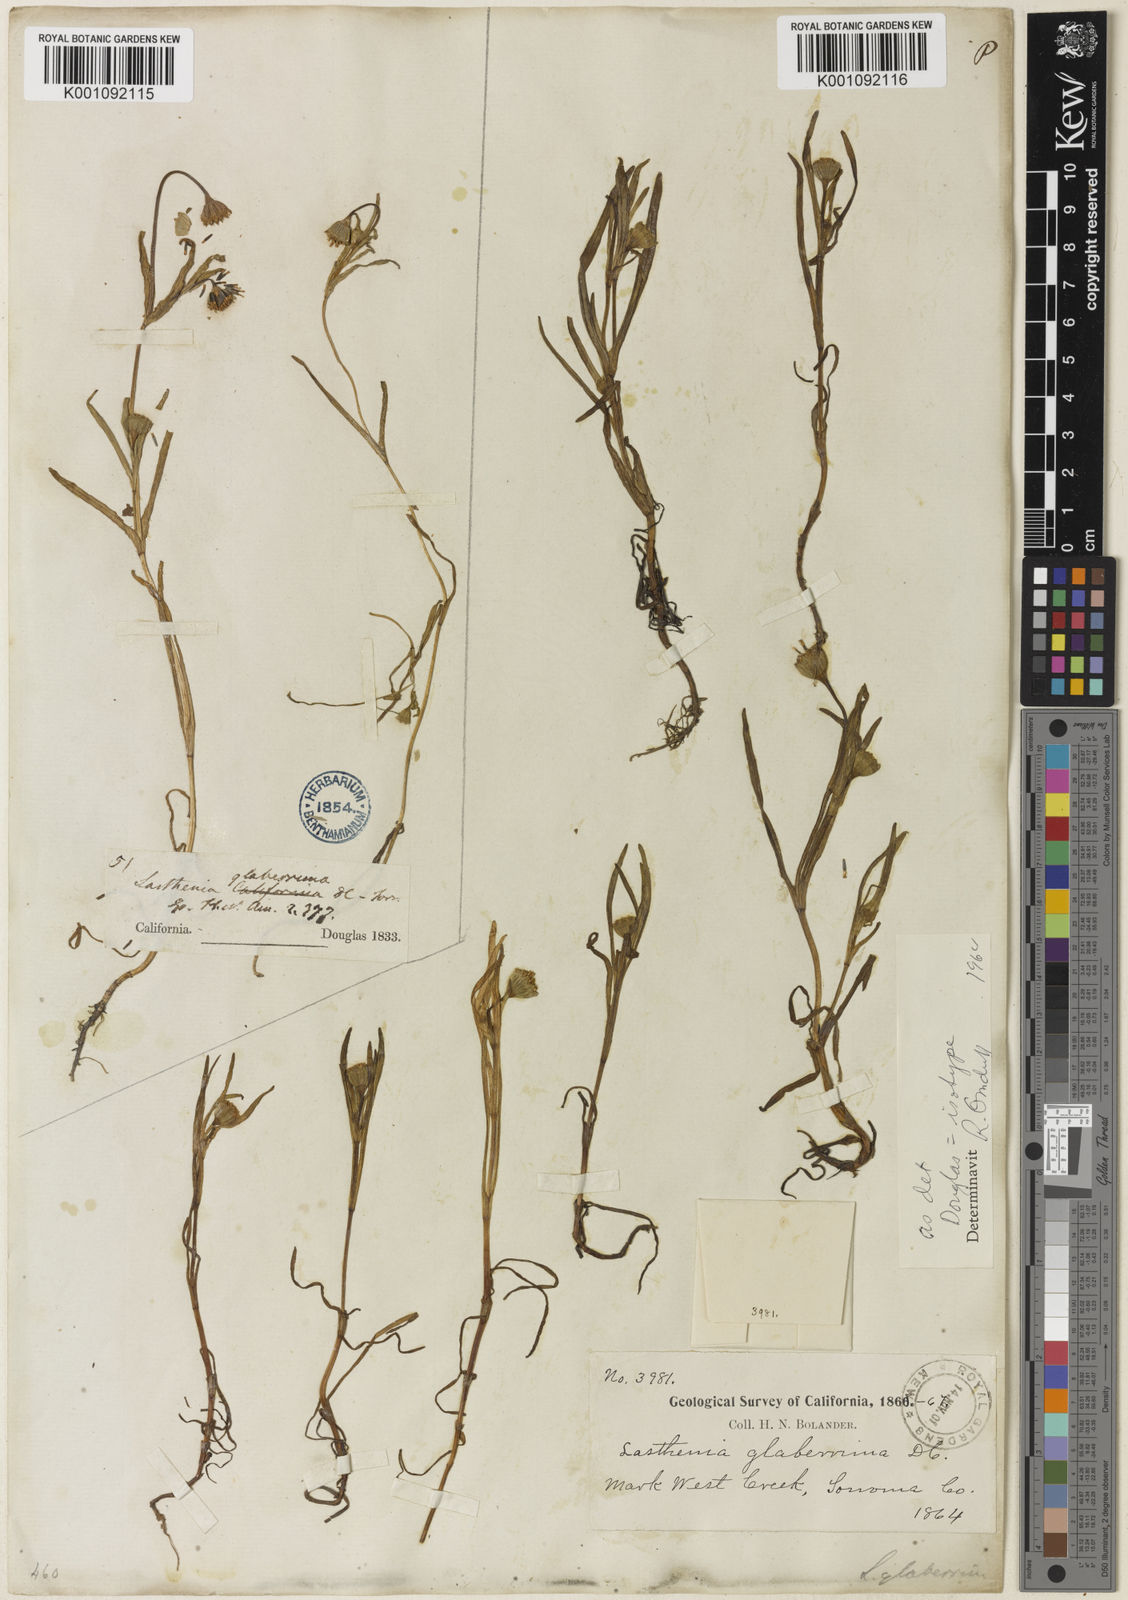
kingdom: Plantae
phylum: Tracheophyta
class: Magnoliopsida
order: Asterales
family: Asteraceae
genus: Lasthenia
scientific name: Lasthenia glaberrima
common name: Smooth goldfields
